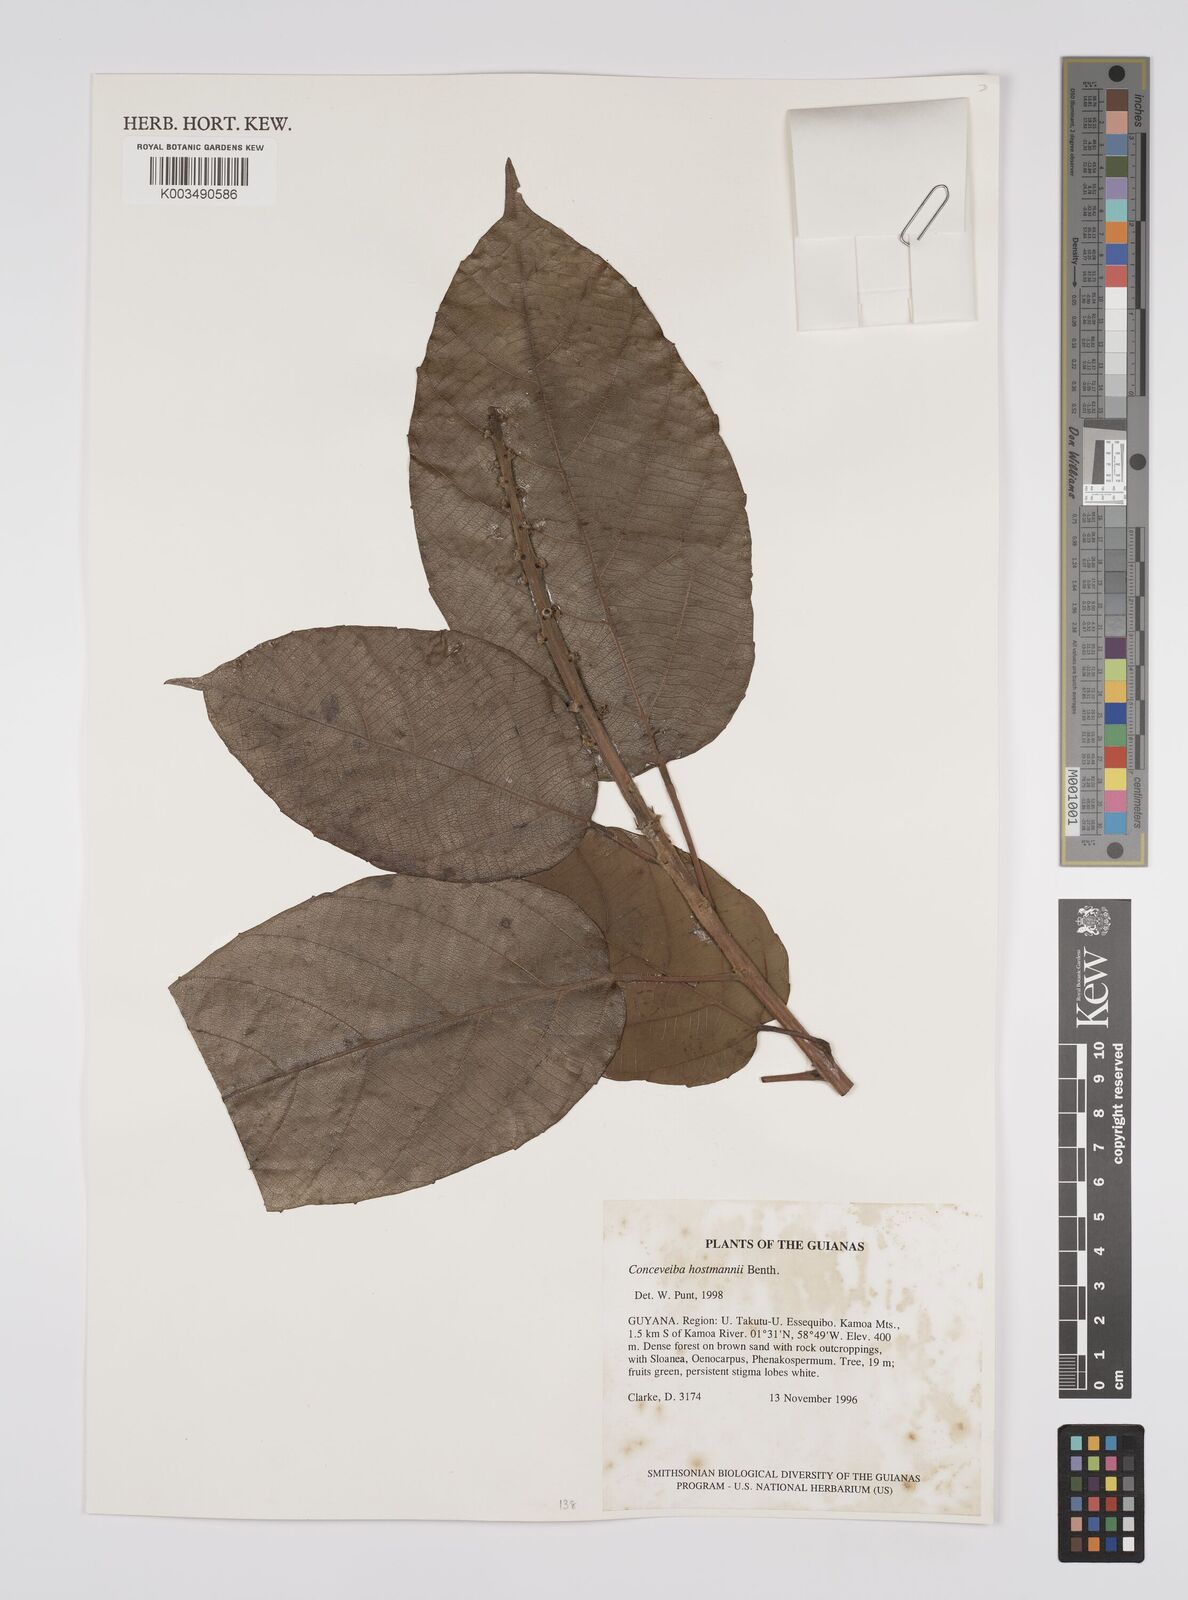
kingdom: Plantae
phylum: Tracheophyta
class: Magnoliopsida
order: Malpighiales
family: Euphorbiaceae
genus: Conceveiba
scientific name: Conceveiba hostmanii
